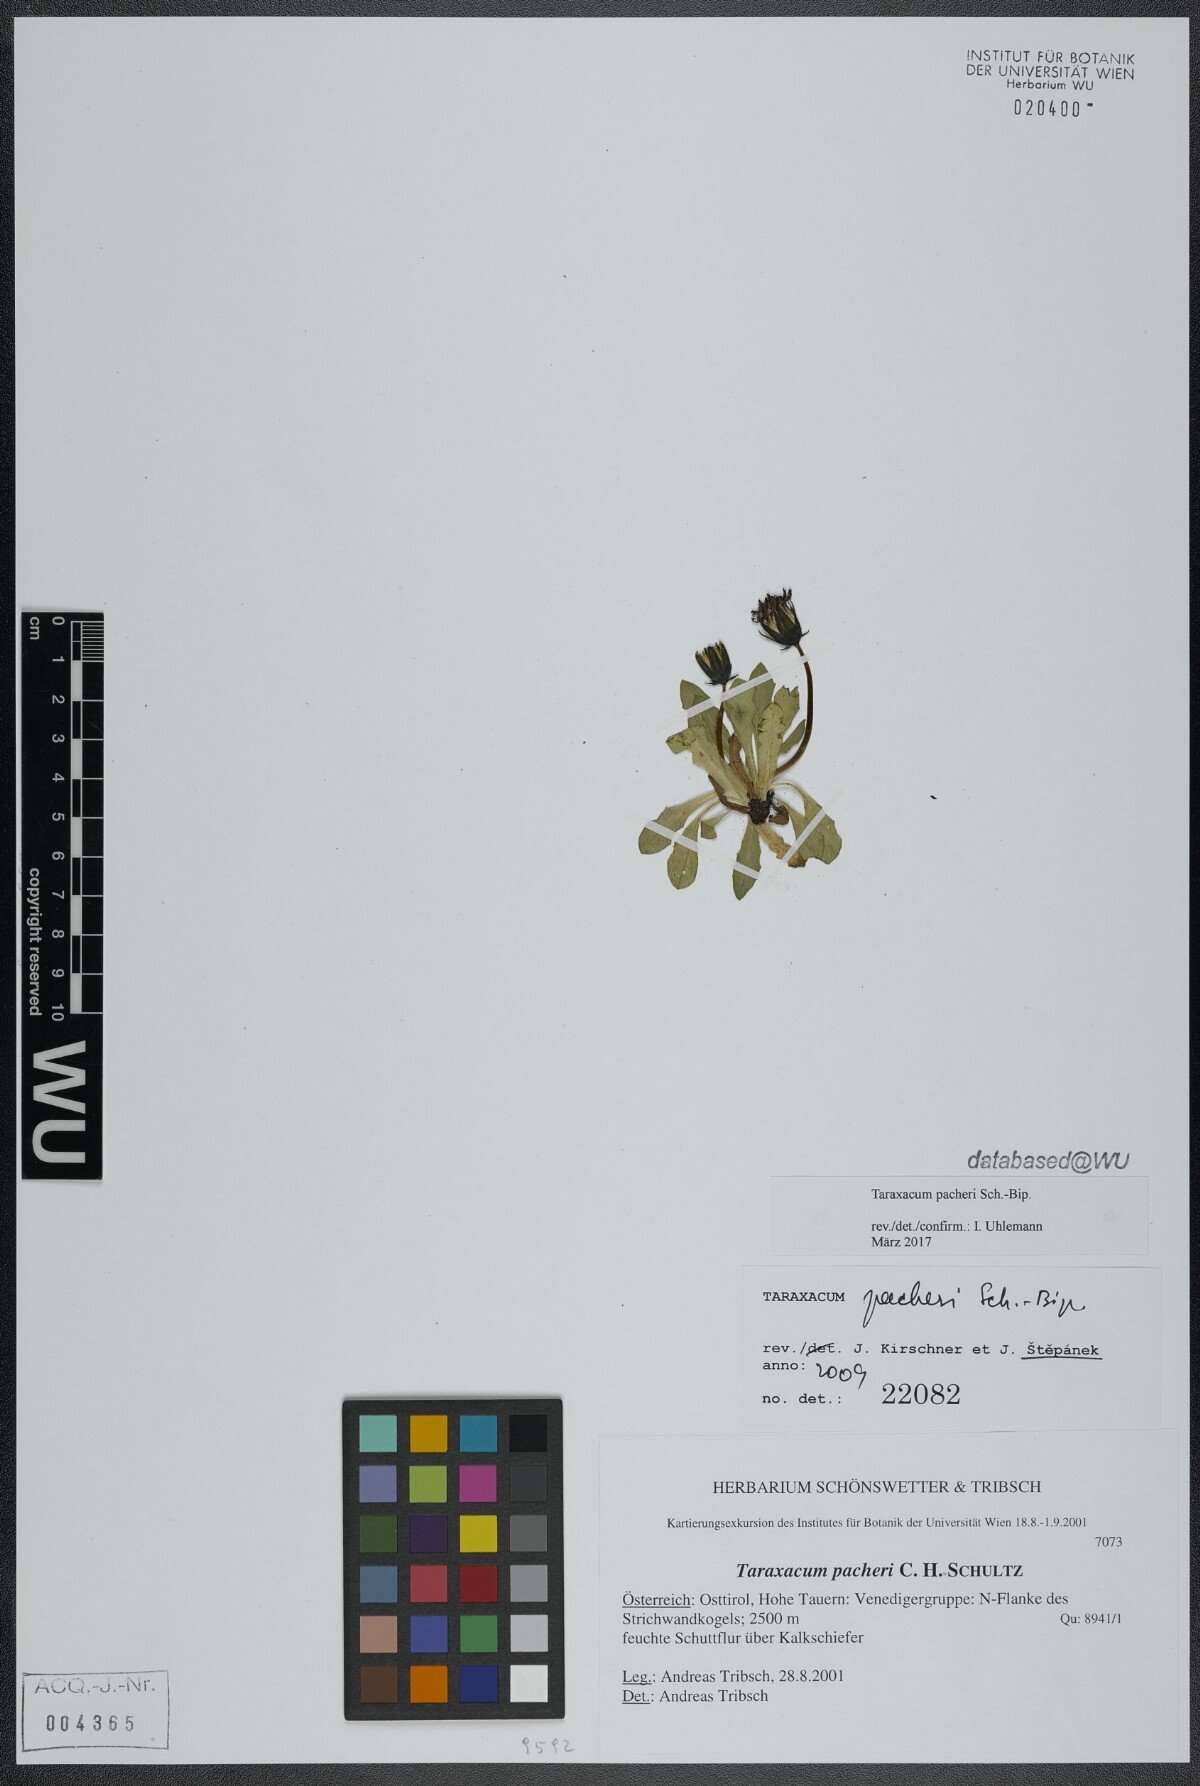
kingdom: Plantae
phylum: Tracheophyta
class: Magnoliopsida
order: Asterales
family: Asteraceae
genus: Taraxacum
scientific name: Taraxacum pacheri
